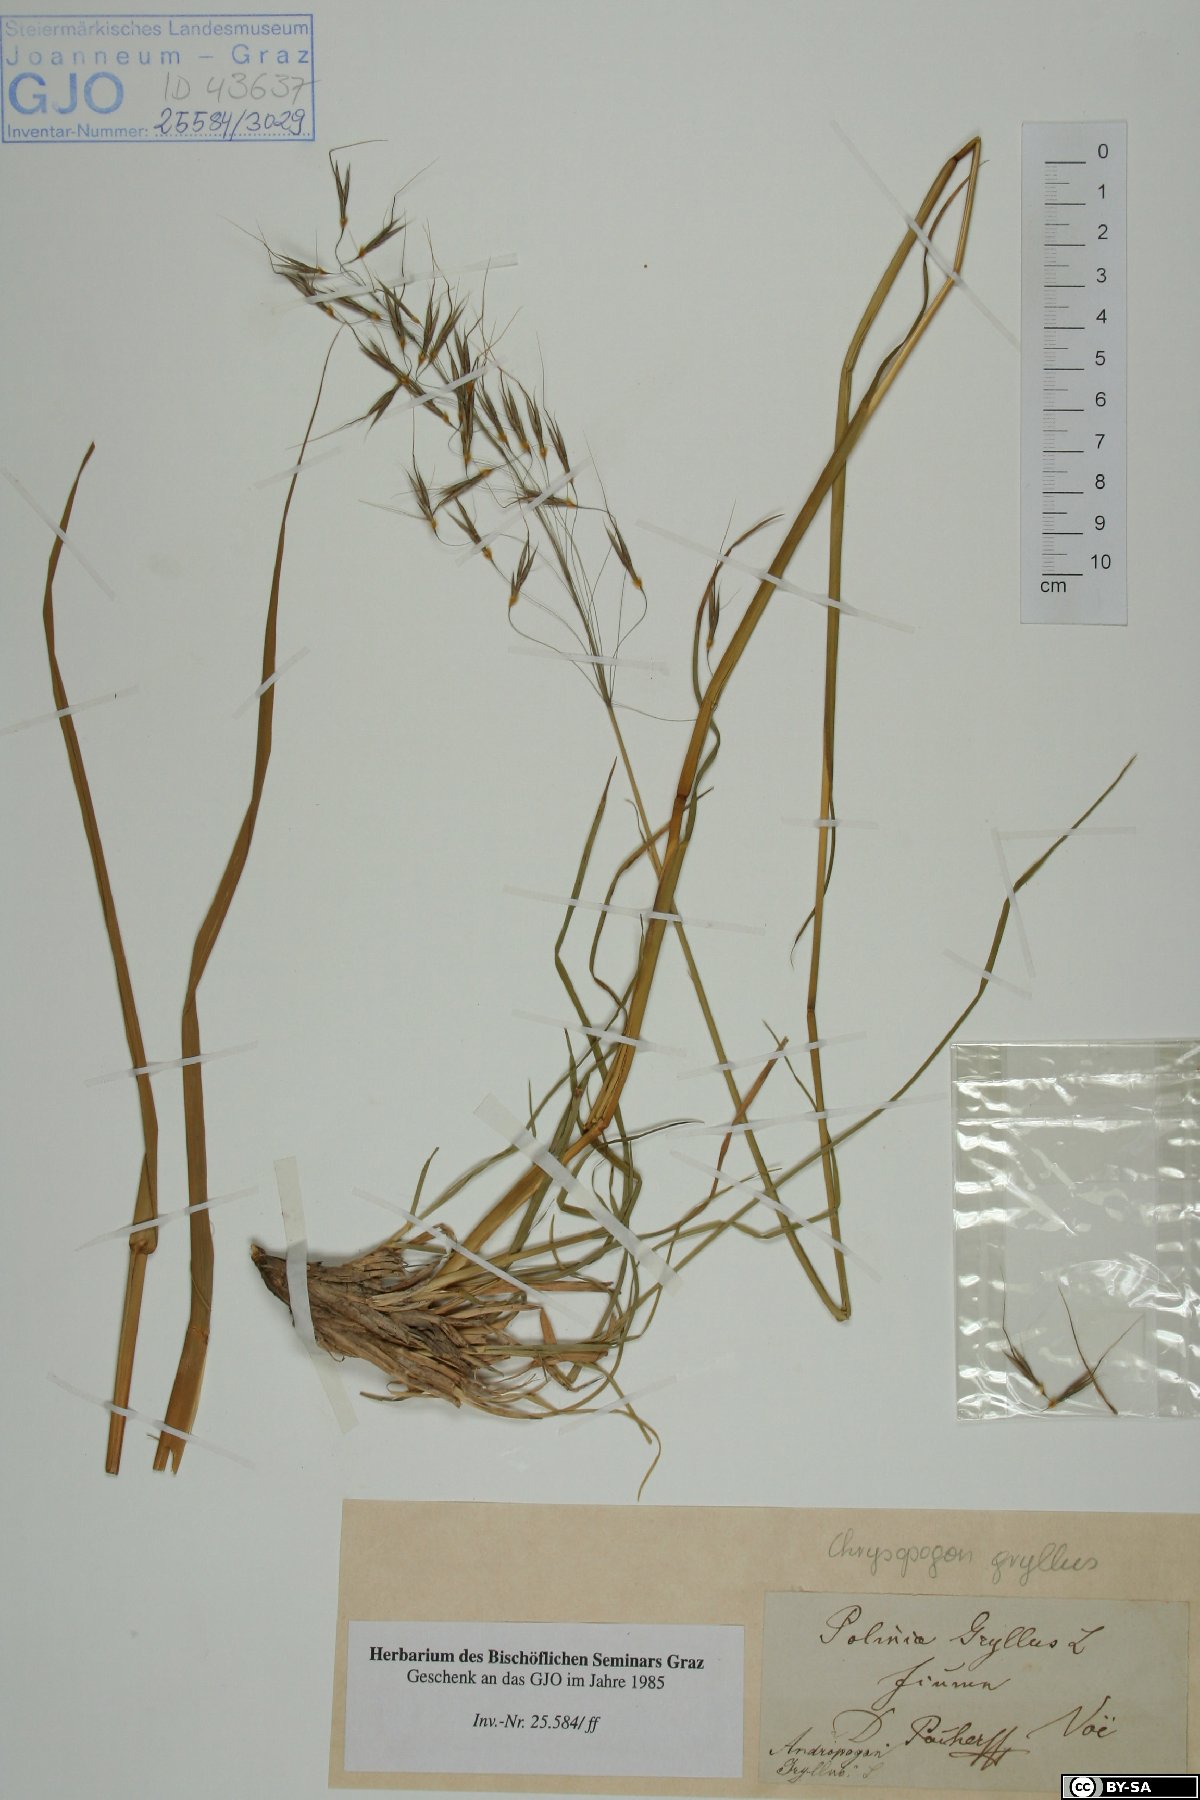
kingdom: Plantae
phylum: Tracheophyta
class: Liliopsida
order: Poales
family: Poaceae
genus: Chrysopogon
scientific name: Chrysopogon gryllus
